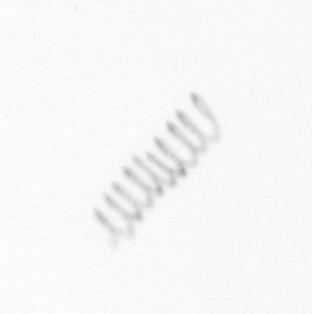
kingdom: Chromista
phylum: Ochrophyta
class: Bacillariophyceae
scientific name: Bacillariophyceae
